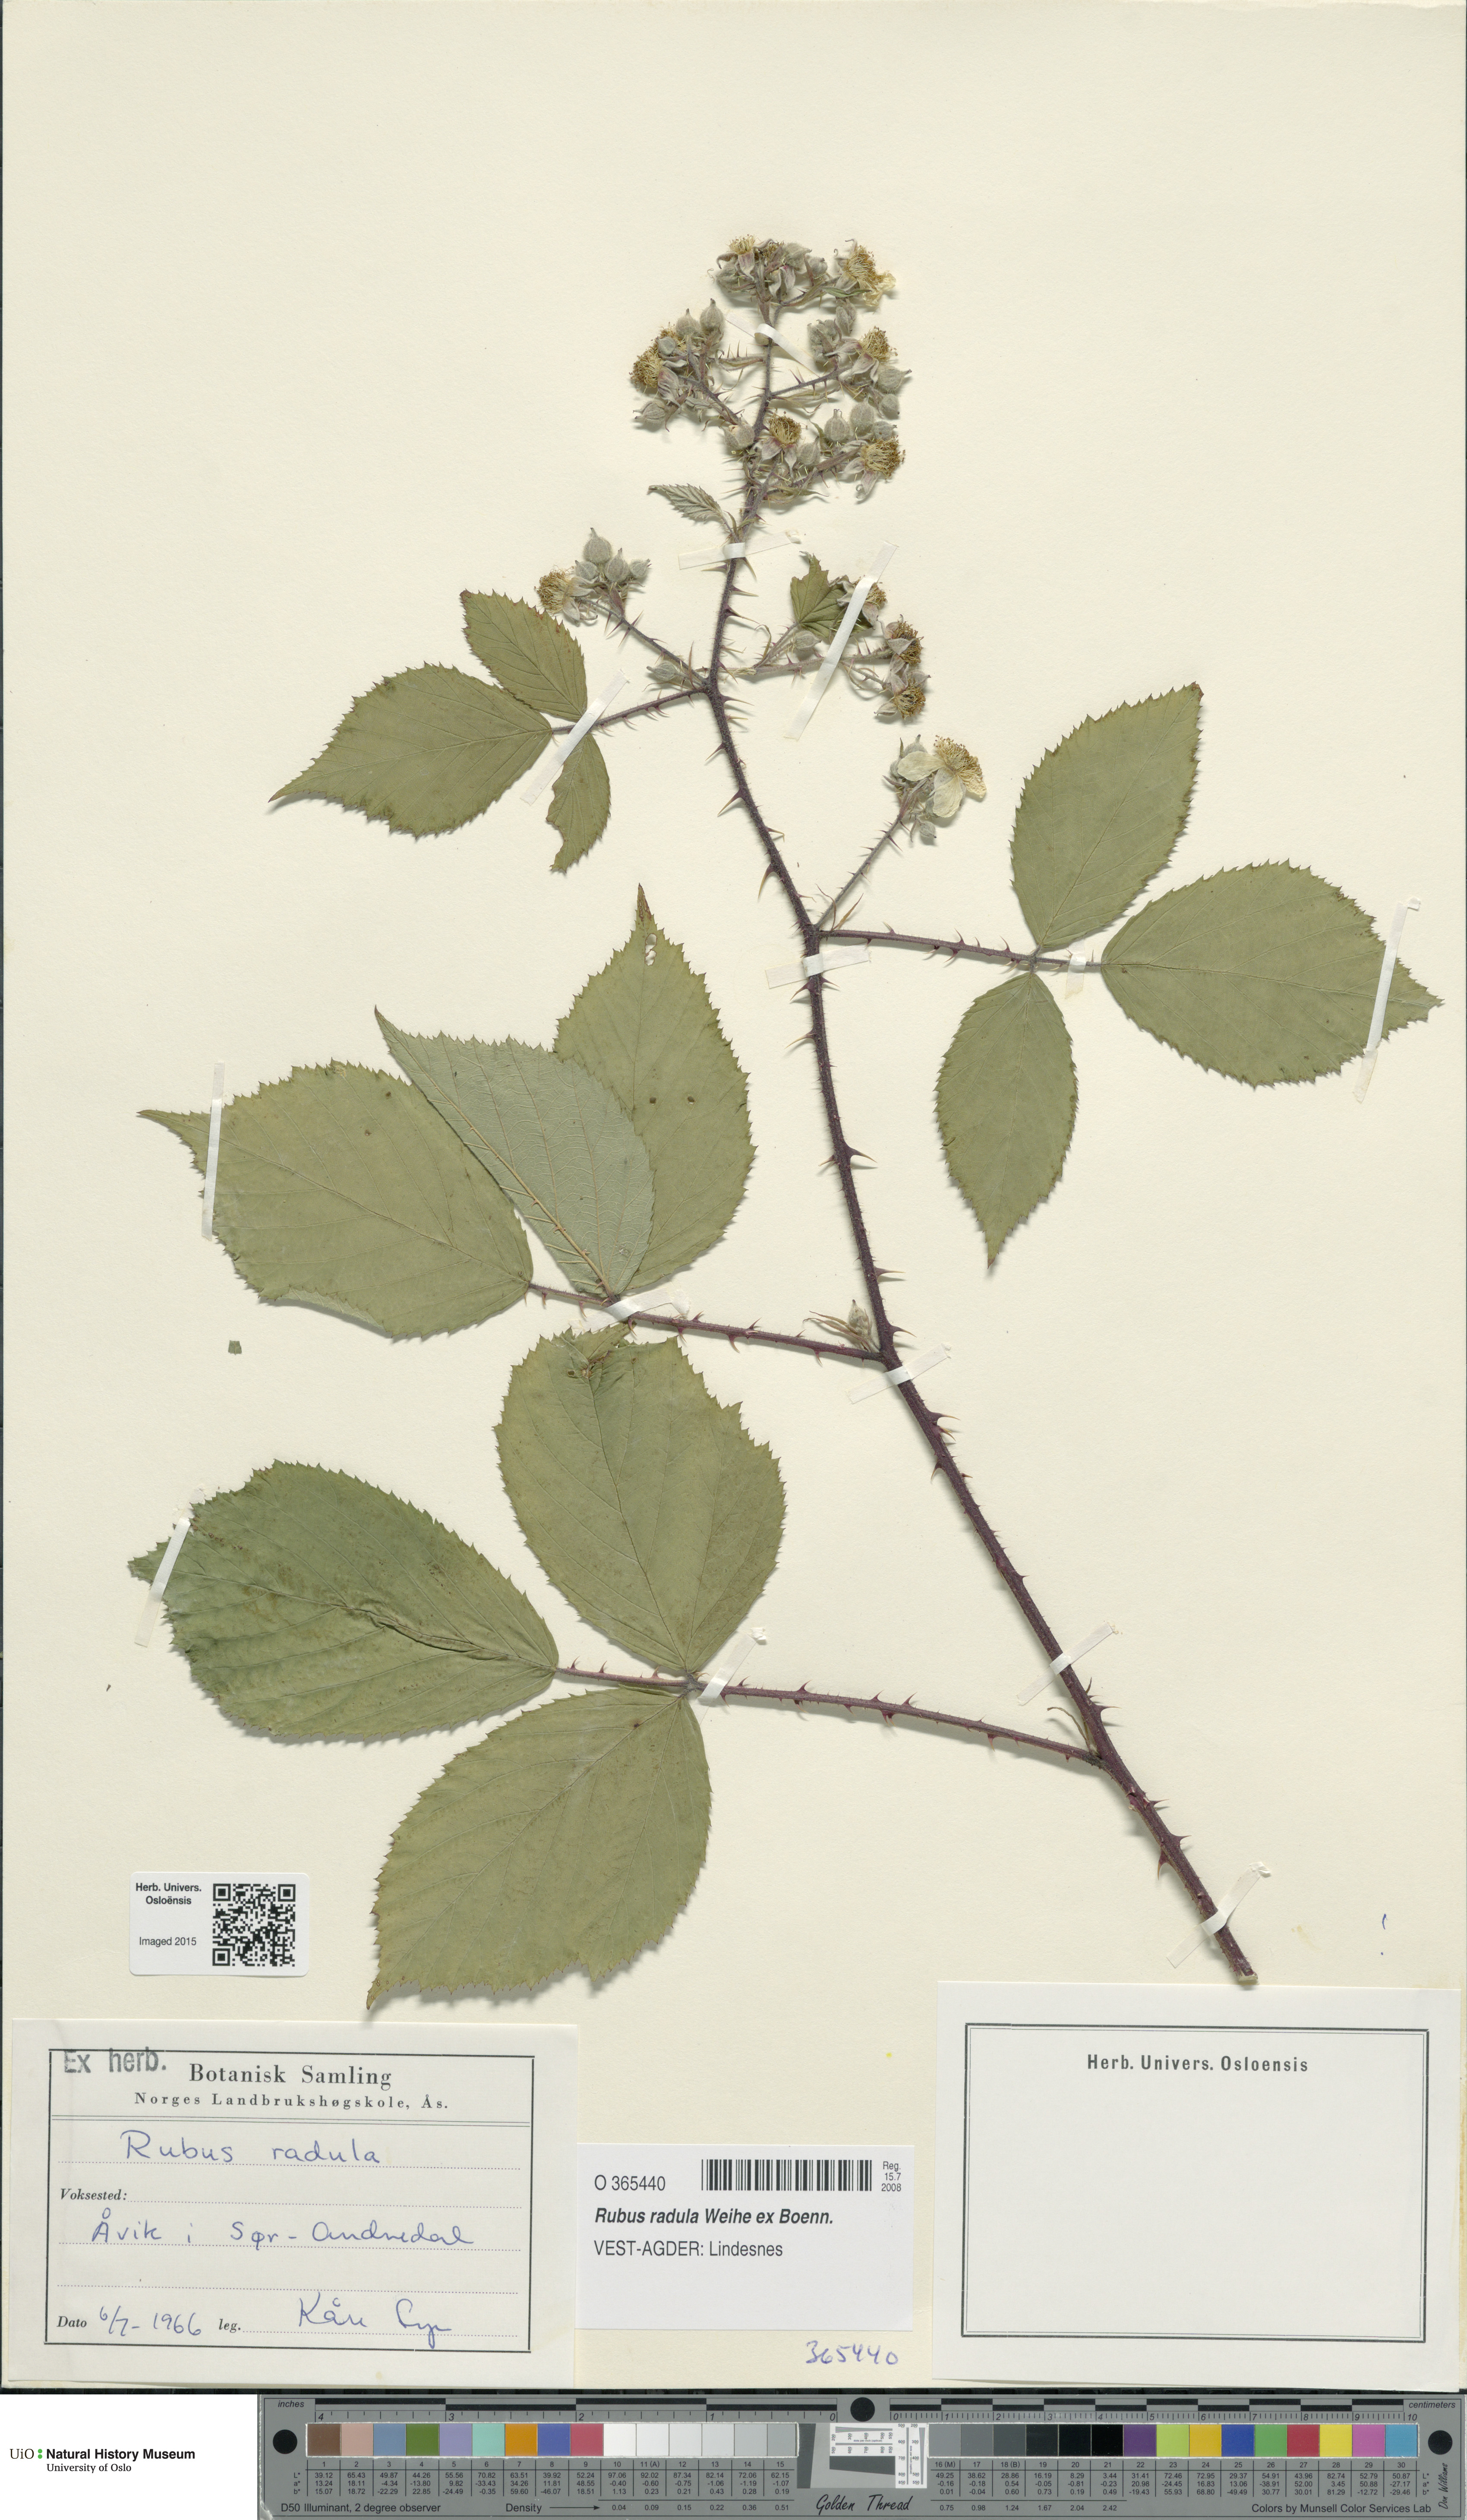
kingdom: Plantae
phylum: Tracheophyta
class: Magnoliopsida
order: Rosales
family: Rosaceae
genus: Rubus
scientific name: Rubus radula
